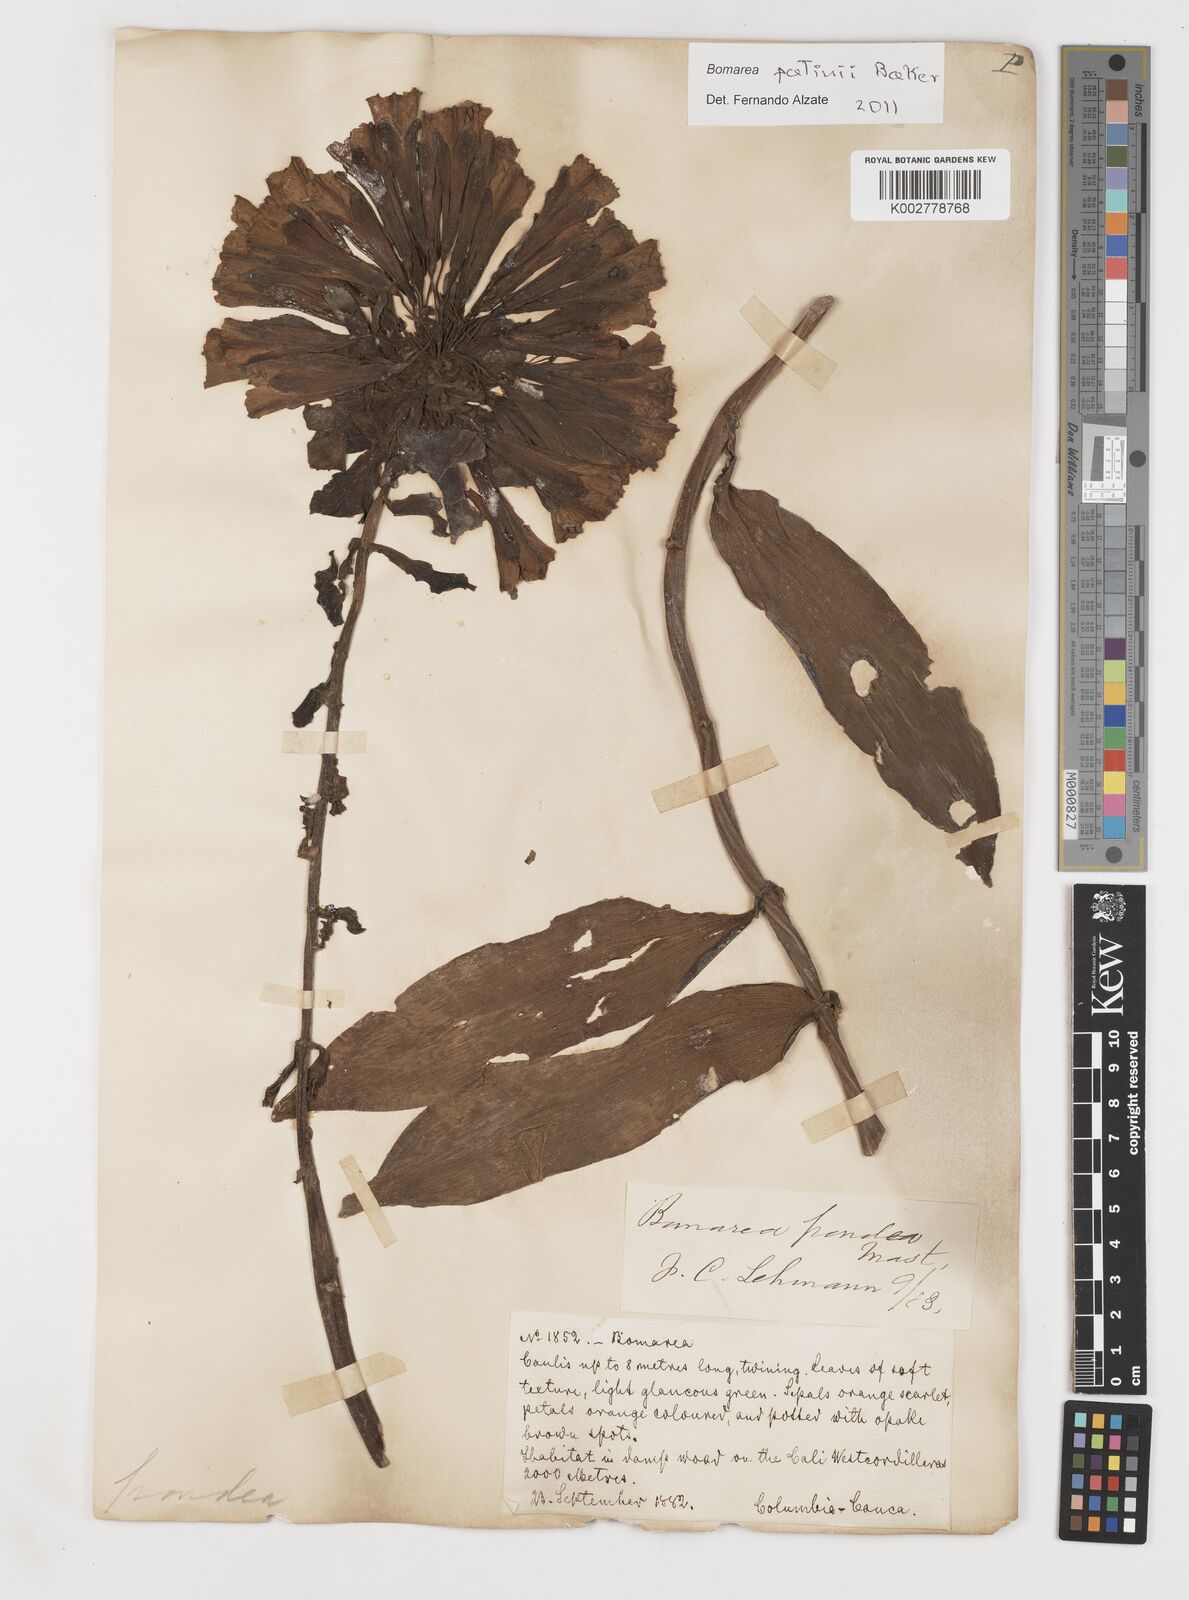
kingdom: Plantae
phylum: Tracheophyta
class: Liliopsida
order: Liliales
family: Alstroemeriaceae
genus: Bomarea
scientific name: Bomarea patinii
